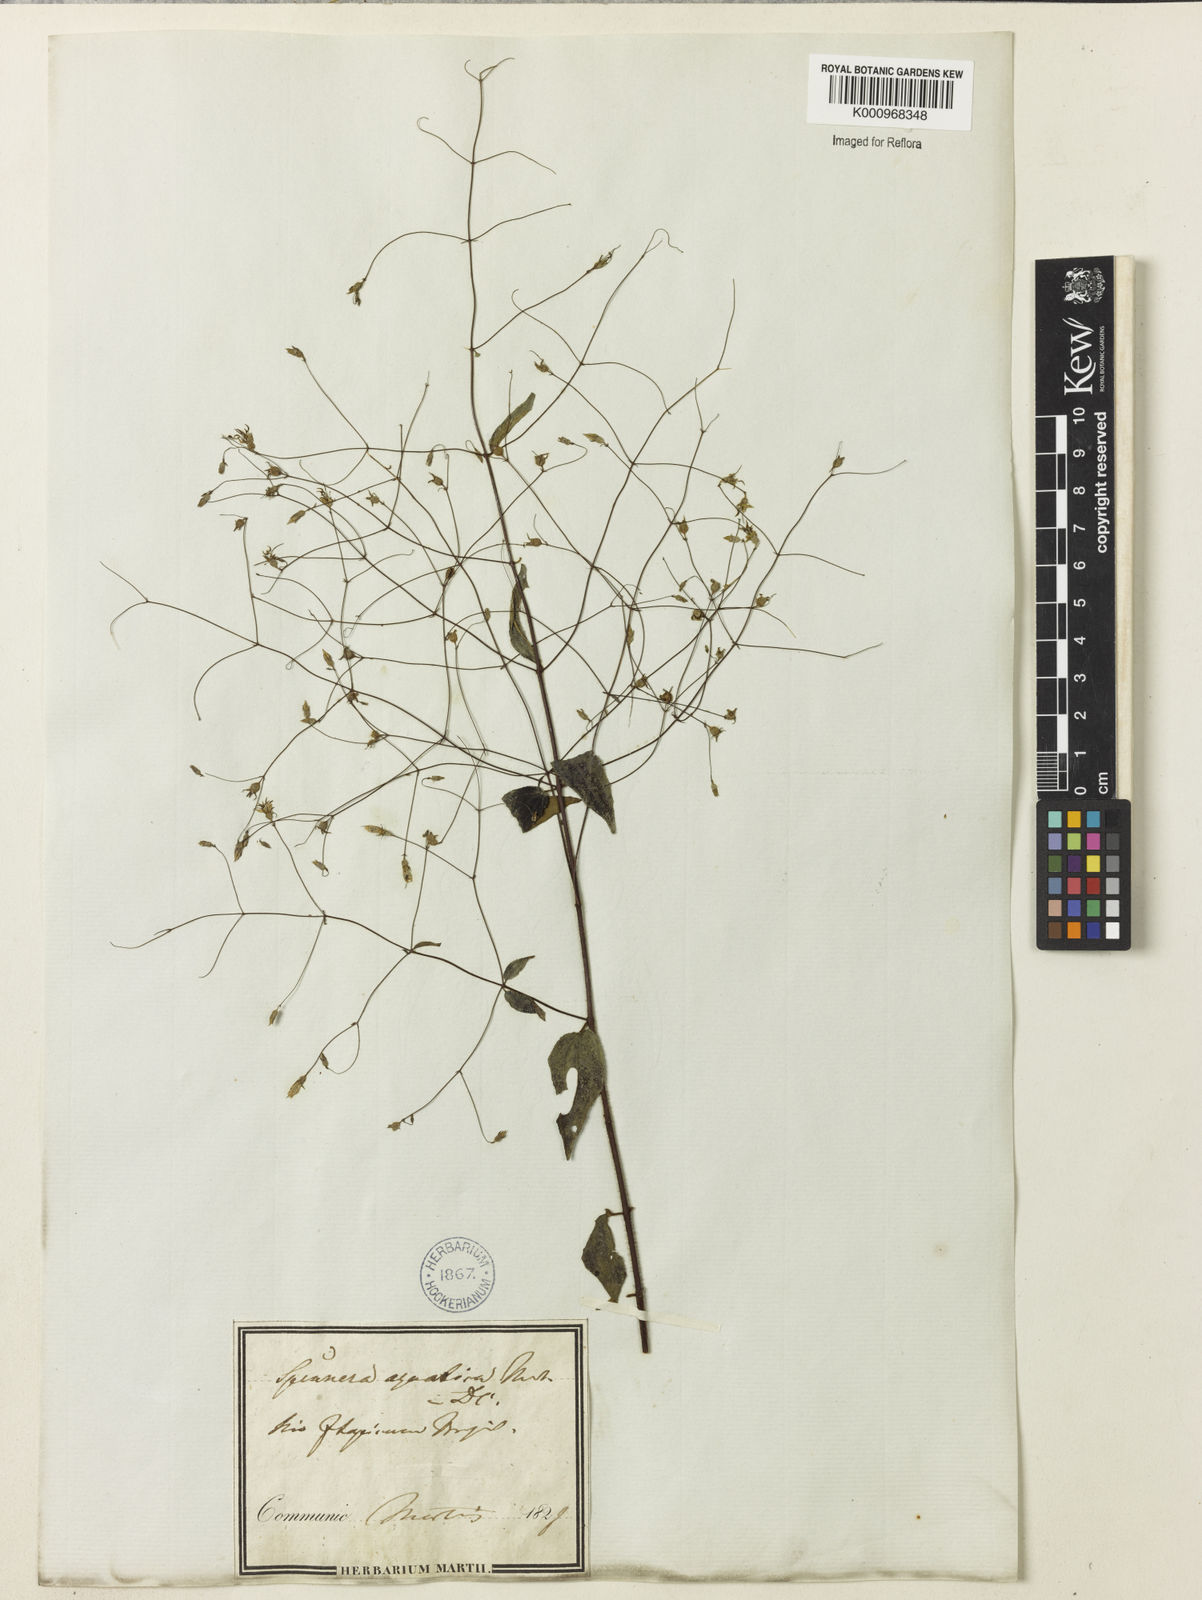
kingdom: Plantae
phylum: Tracheophyta
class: Magnoliopsida
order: Myrtales
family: Melastomataceae
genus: Nepsera
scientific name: Nepsera aquatica
